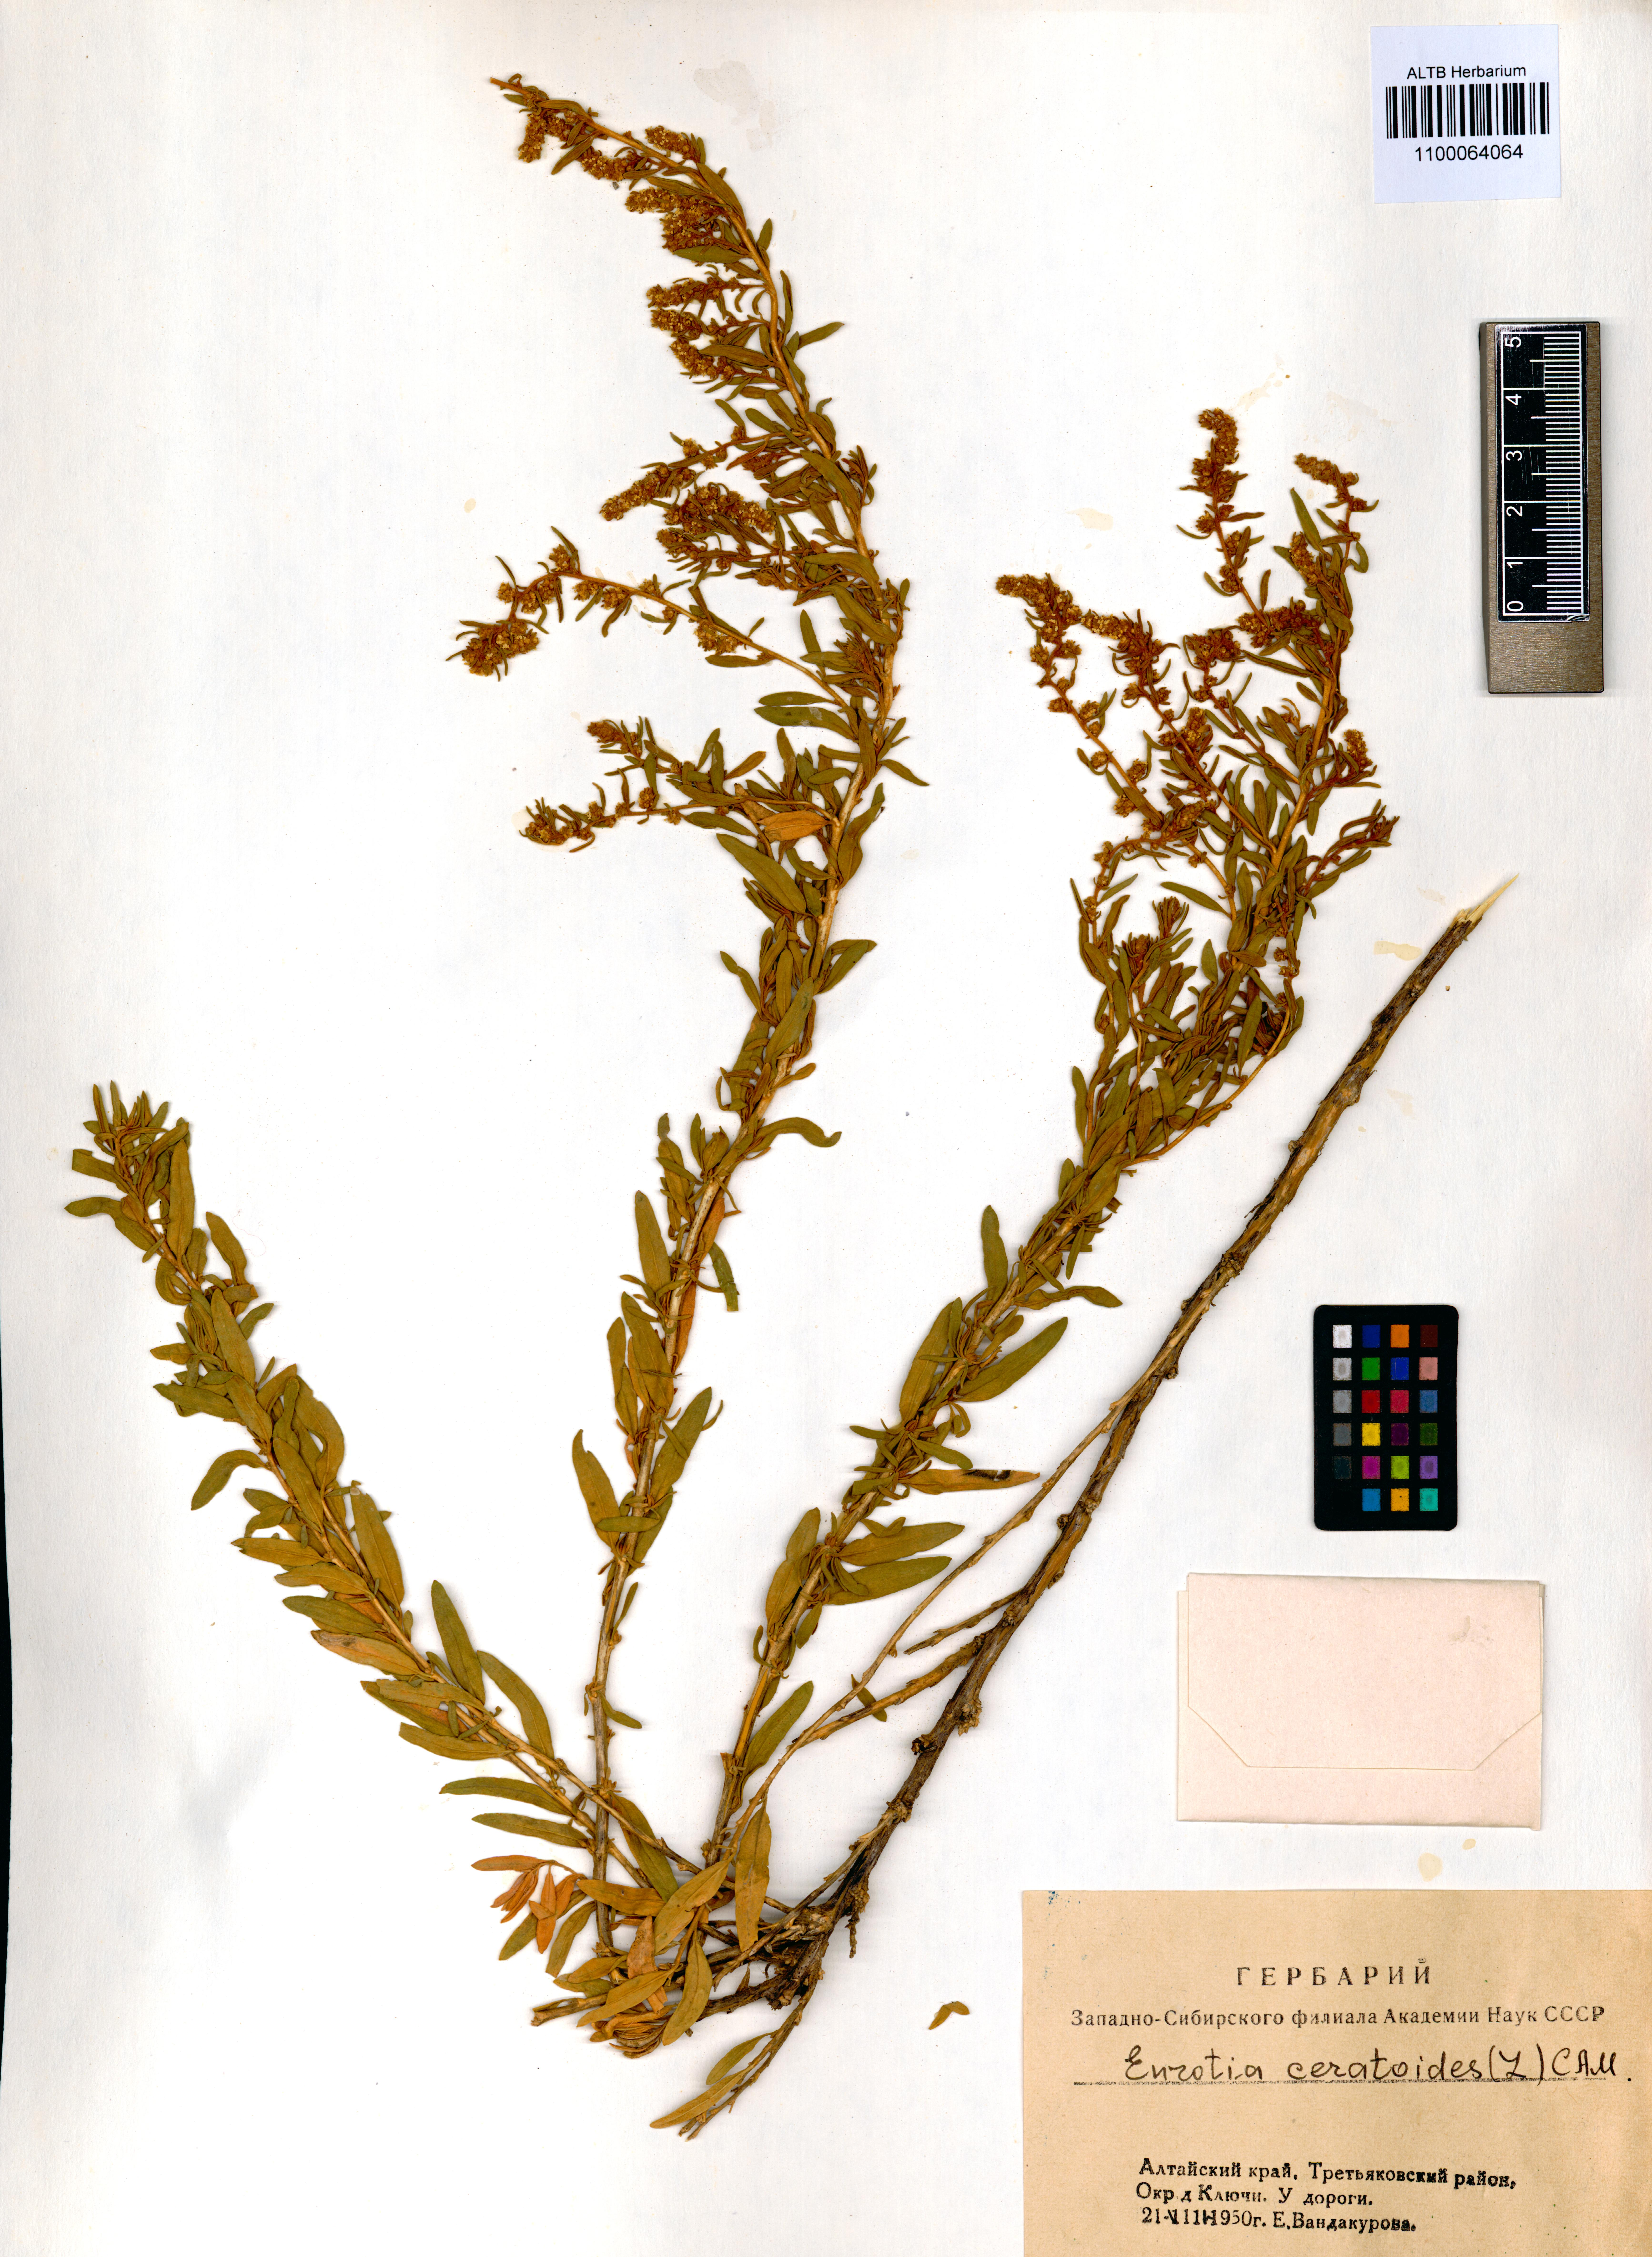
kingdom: Plantae
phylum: Tracheophyta
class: Magnoliopsida
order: Caryophyllales
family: Amaranthaceae
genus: Krascheninnikovia
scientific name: Krascheninnikovia ceratoides
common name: Pamirian winterfat
